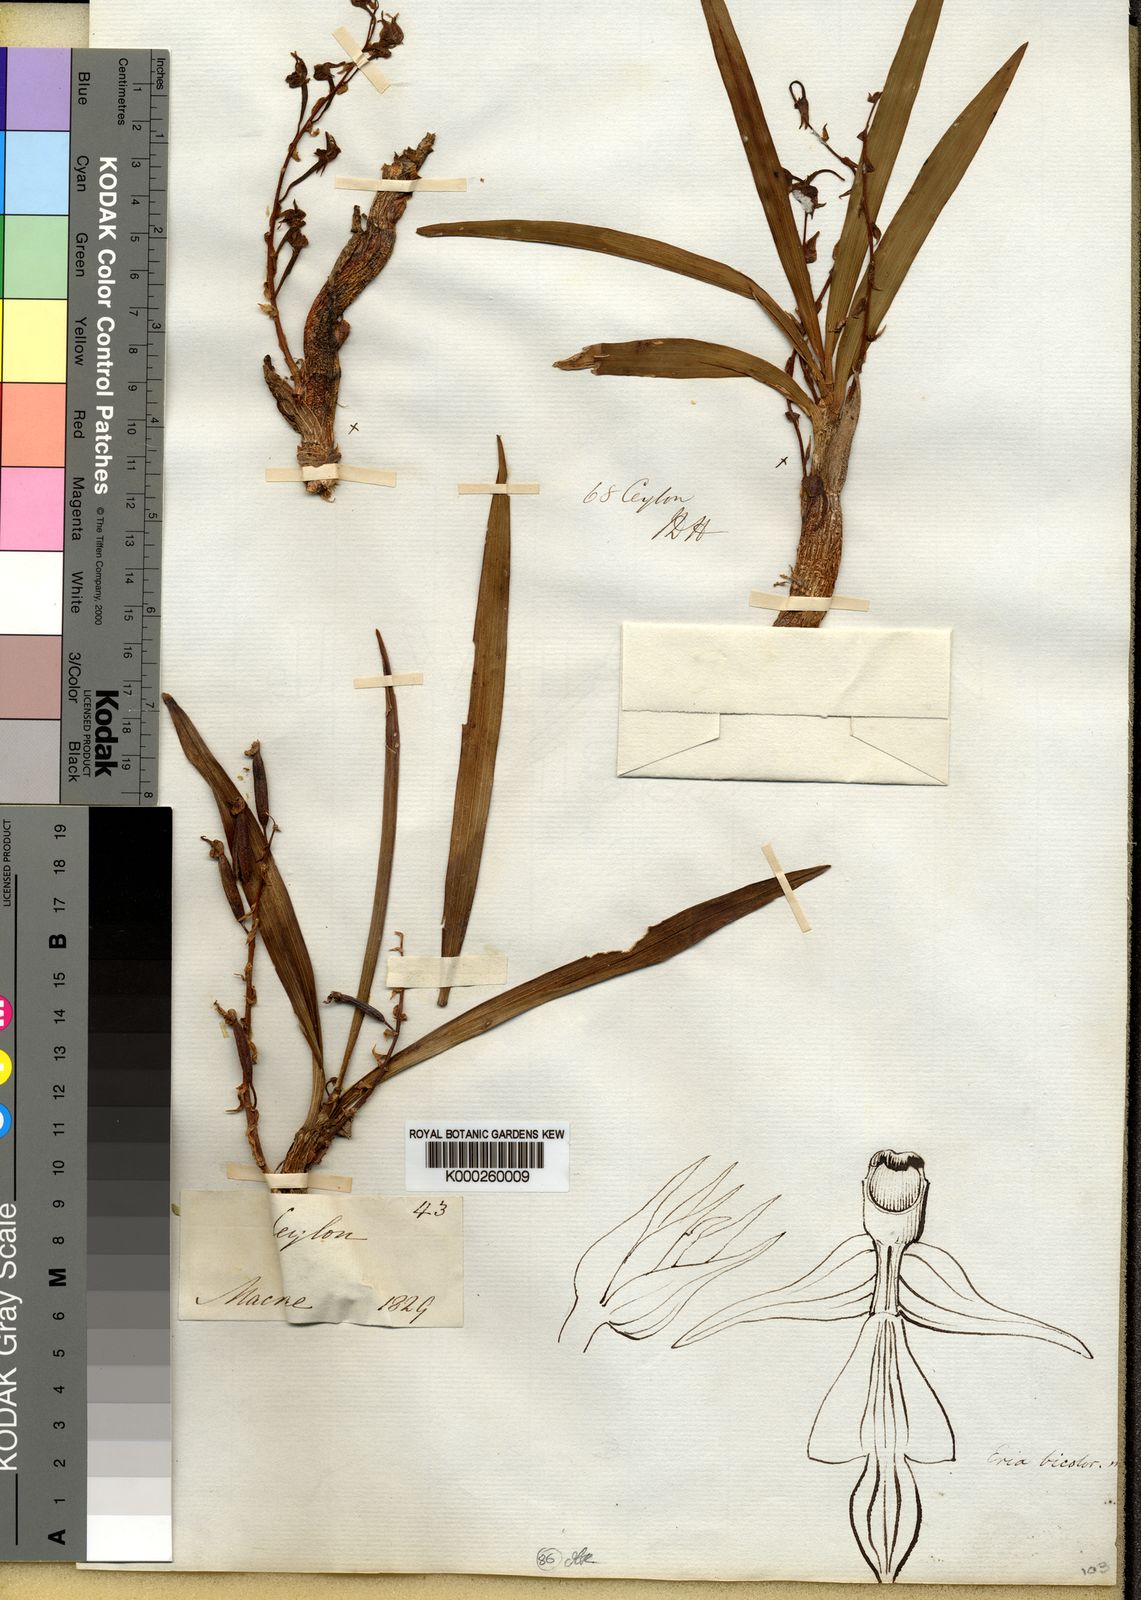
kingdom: Plantae
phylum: Tracheophyta
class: Liliopsida
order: Asparagales
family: Orchidaceae
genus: Pinalia
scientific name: Pinalia bicolor
